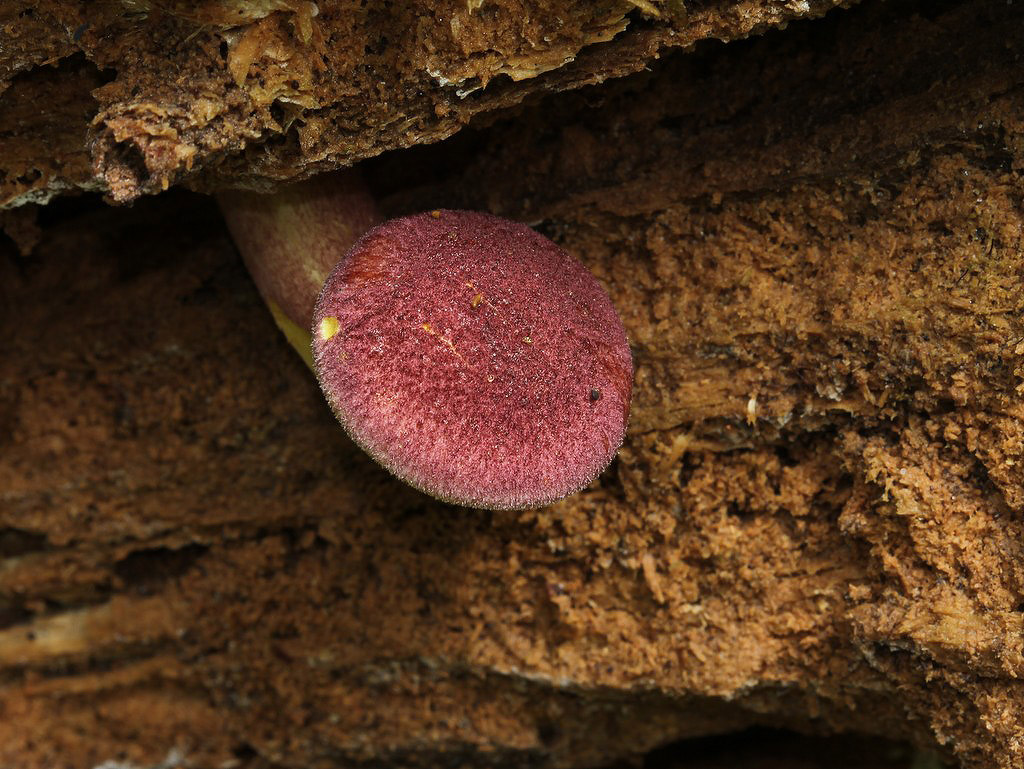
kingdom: Fungi
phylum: Basidiomycota
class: Agaricomycetes
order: Agaricales
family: Tricholomataceae
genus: Tricholomopsis
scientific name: Tricholomopsis rutilans
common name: purpur-væbnerhat
